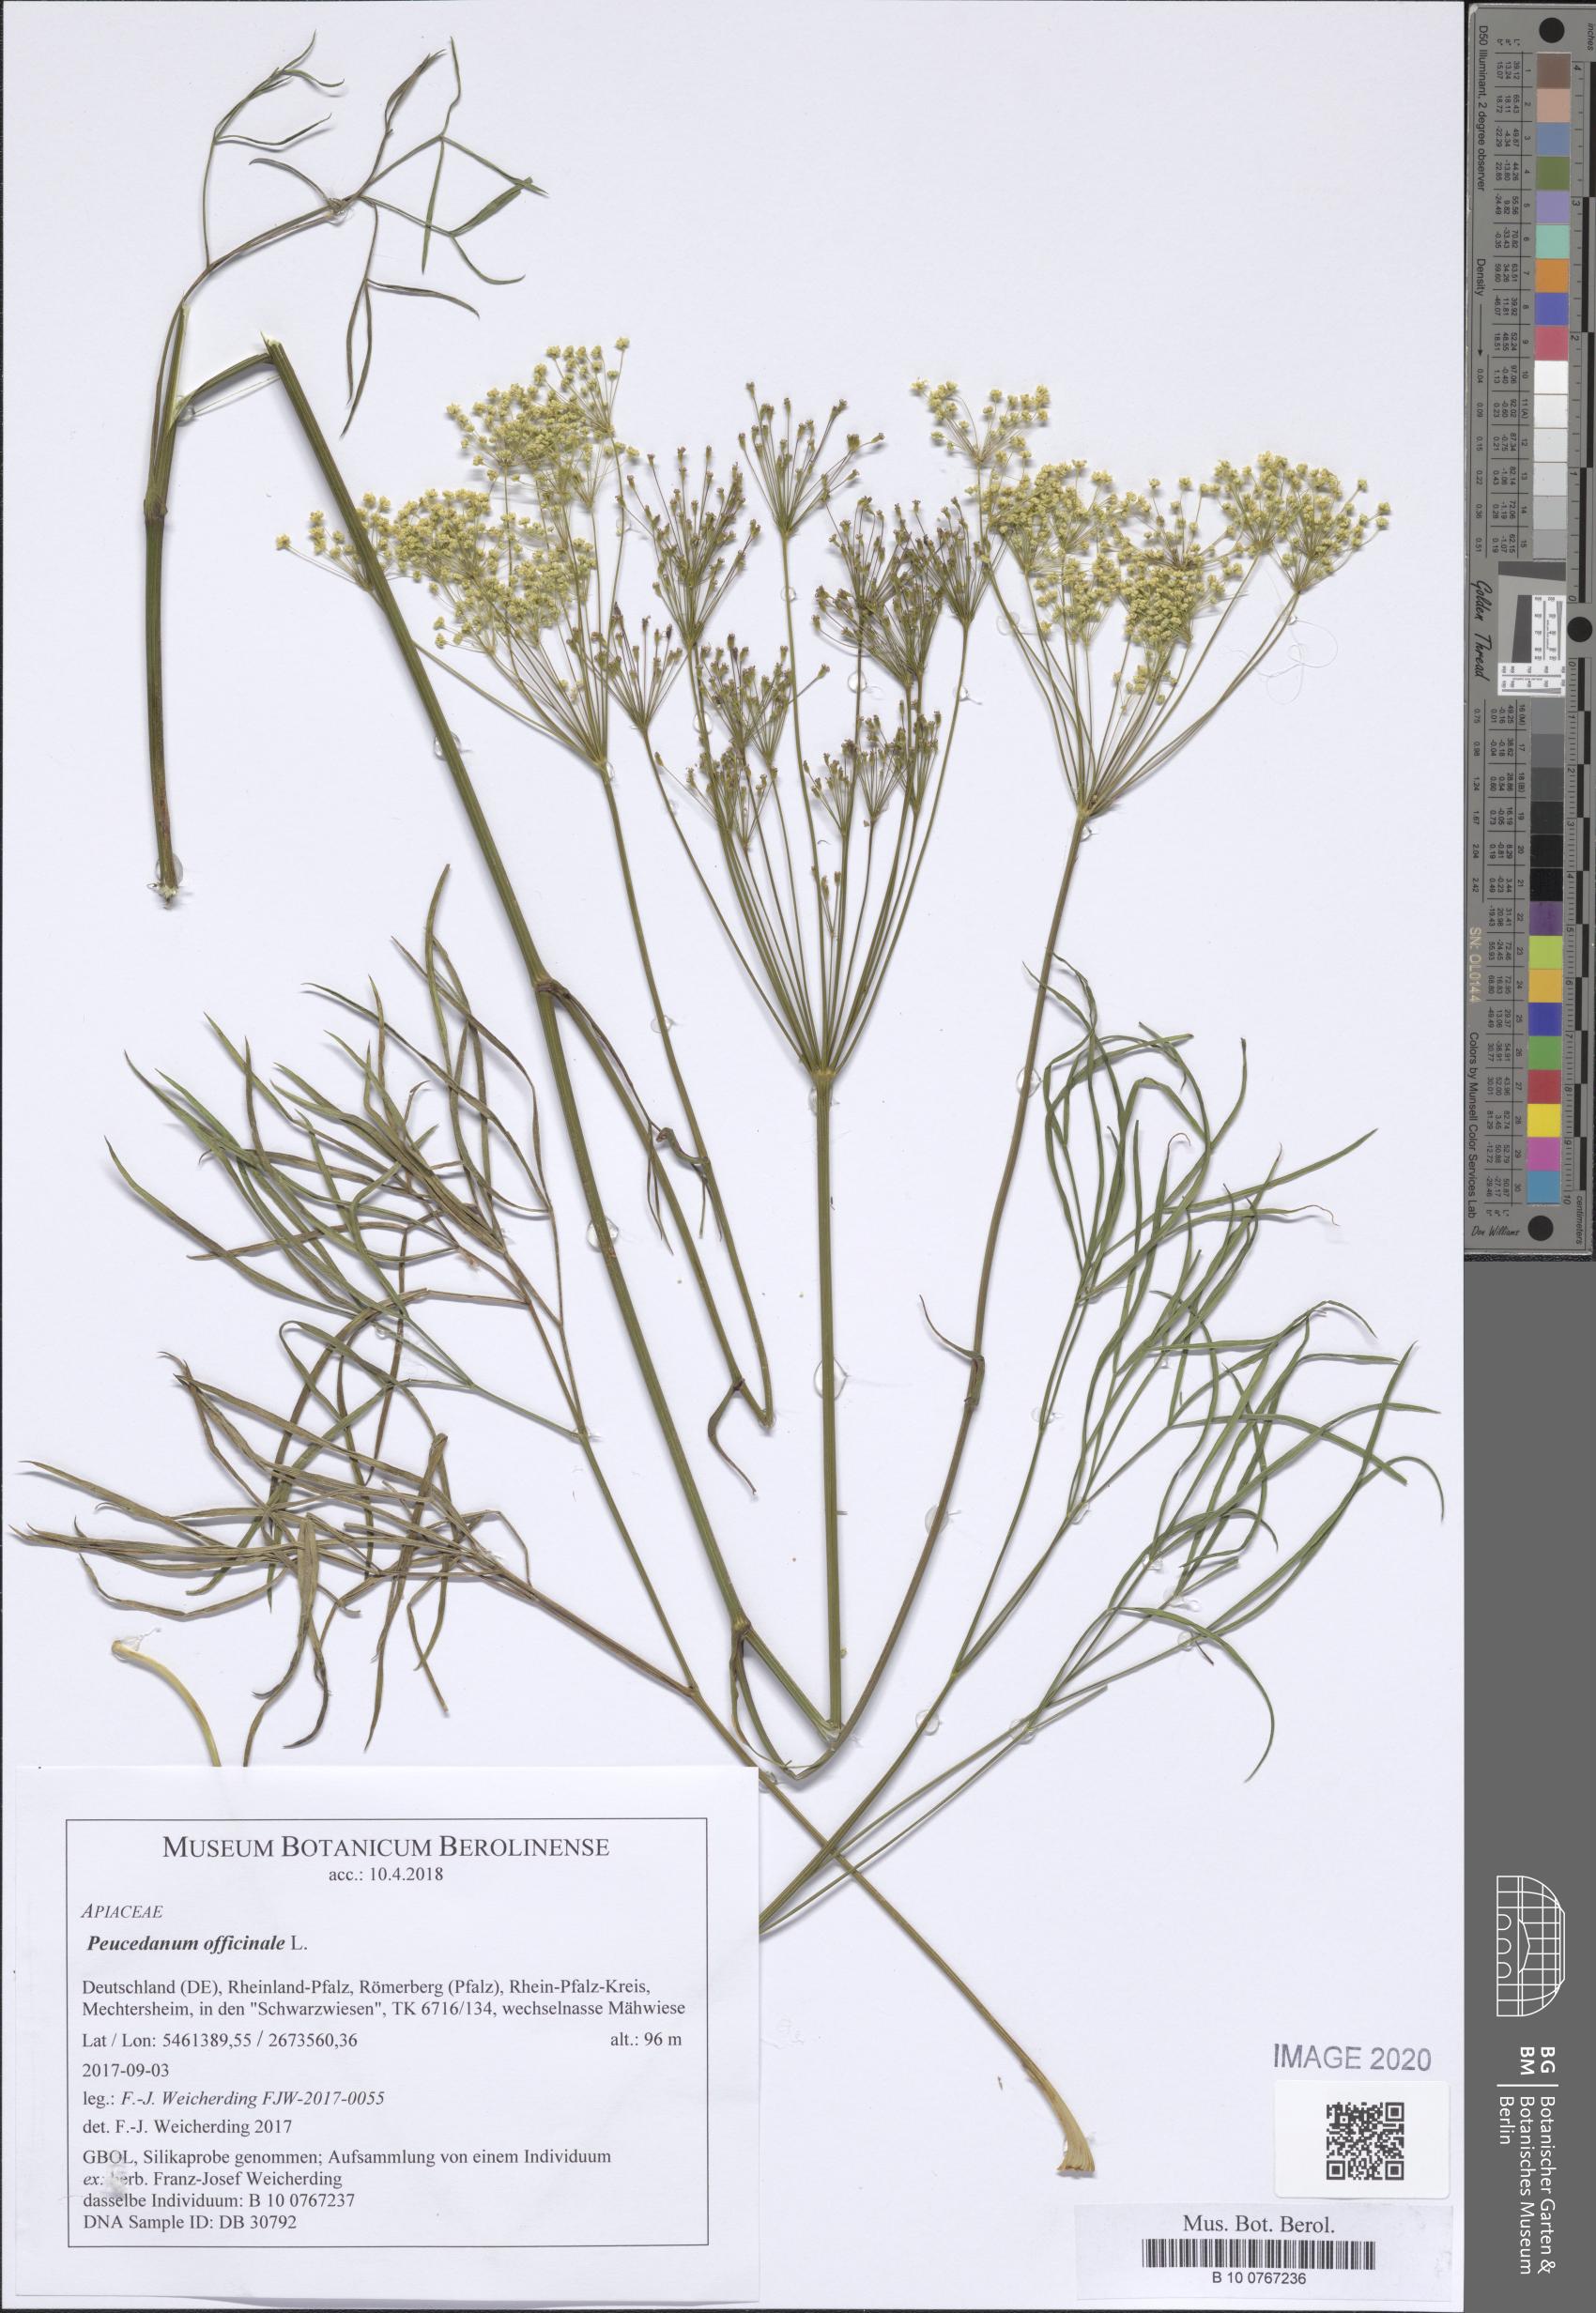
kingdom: Plantae
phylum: Tracheophyta
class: Magnoliopsida
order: Apiales
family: Apiaceae
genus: Peucedanum
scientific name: Peucedanum officinale
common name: Sulphurweed
